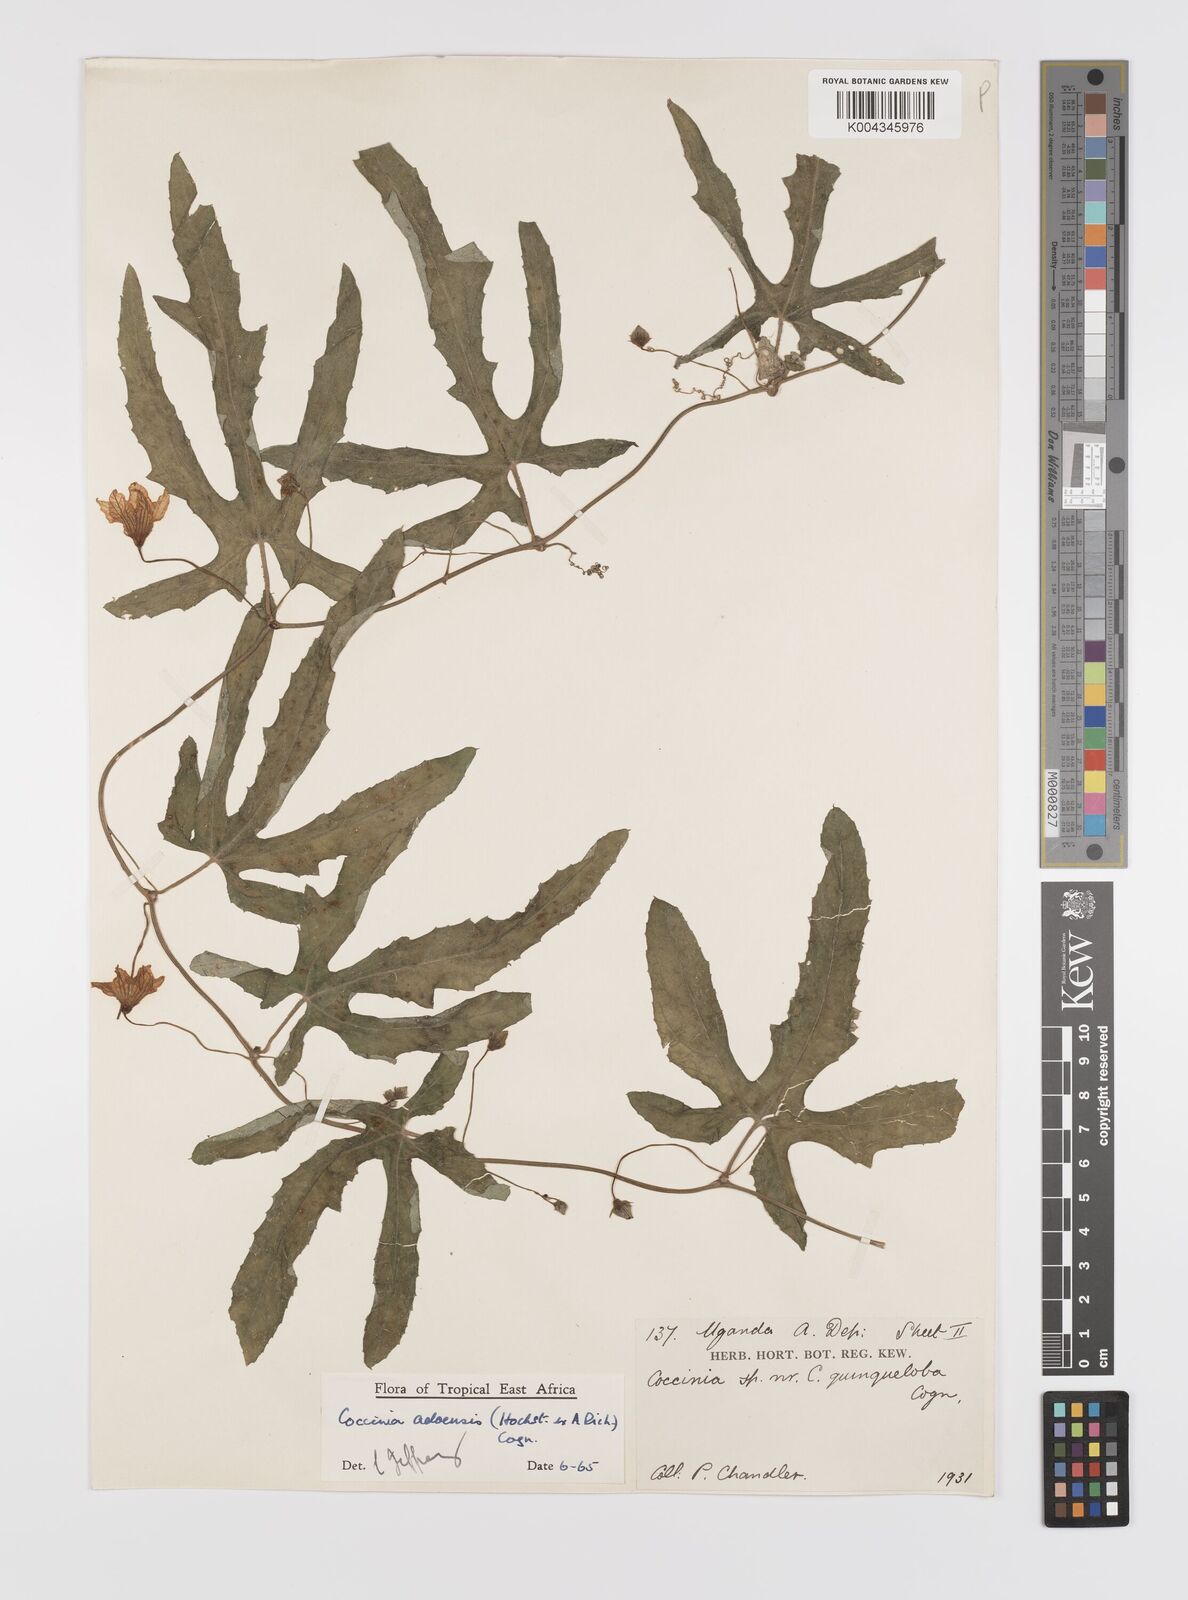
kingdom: Plantae
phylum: Tracheophyta
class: Magnoliopsida
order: Cucurbitales
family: Cucurbitaceae
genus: Coccinia
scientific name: Coccinia adoensis
